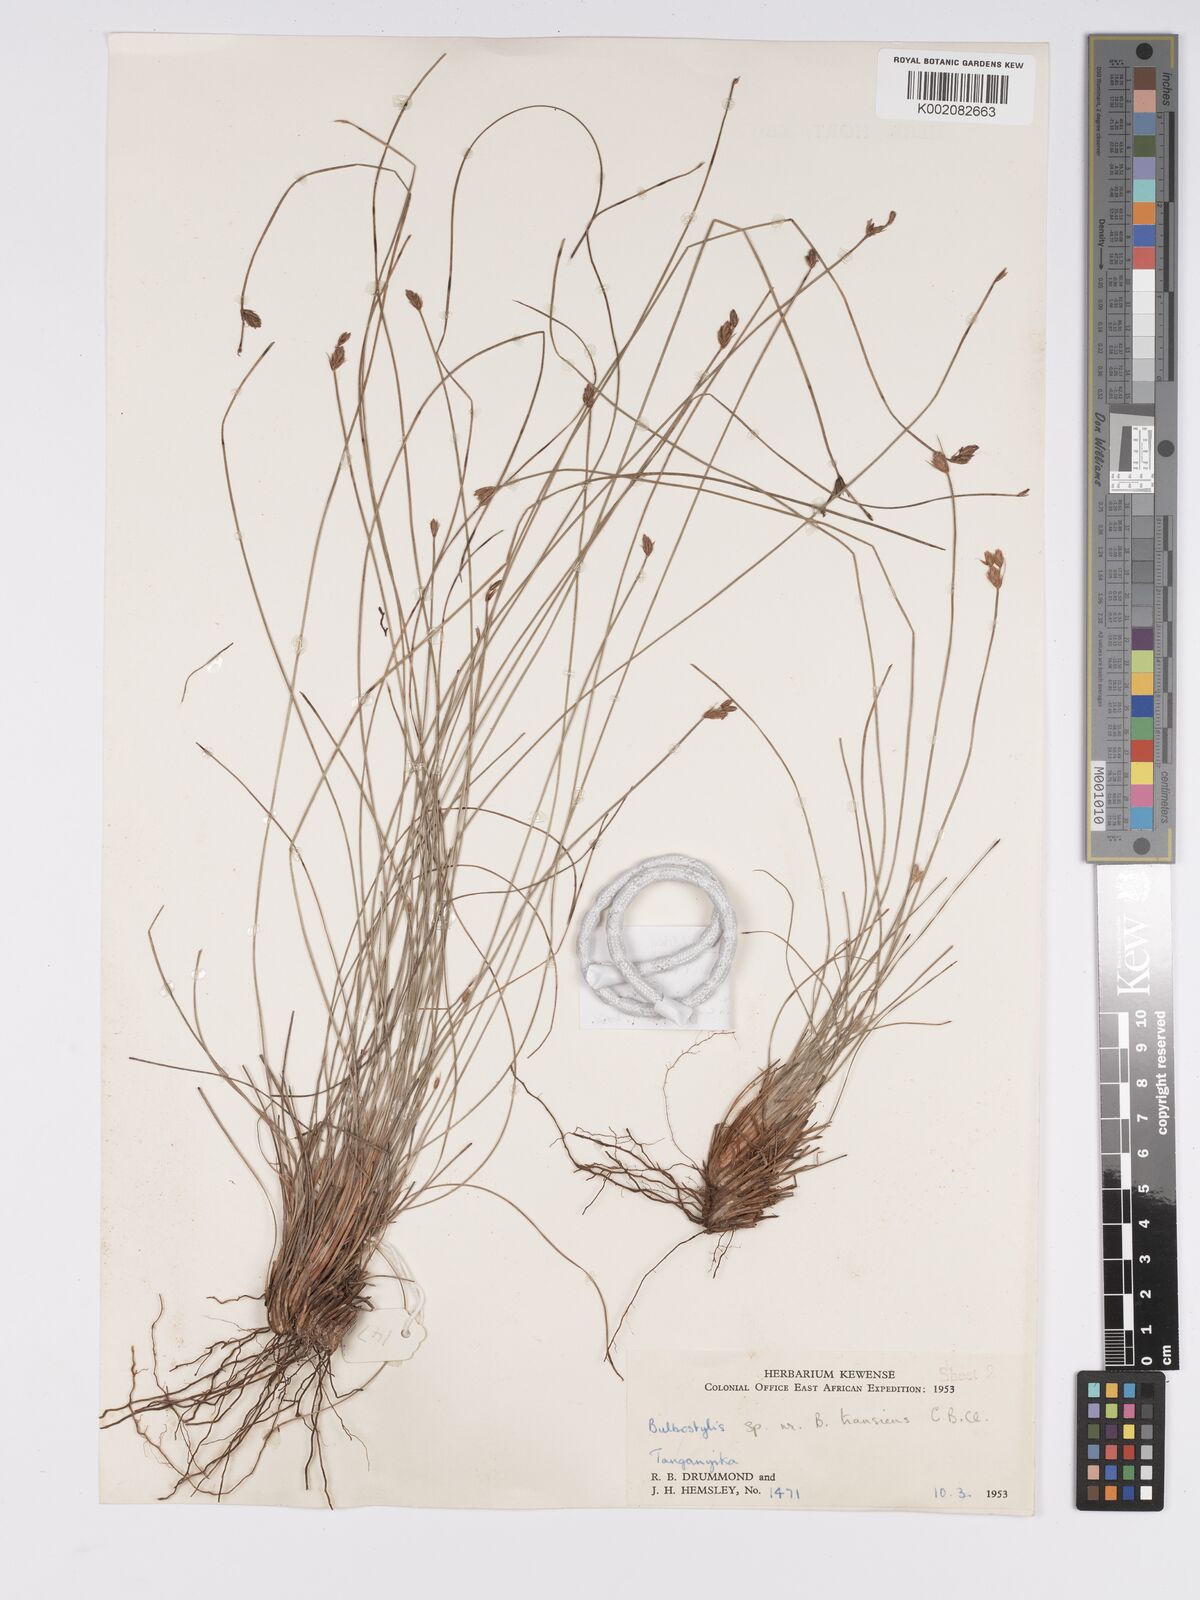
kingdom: Plantae
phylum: Tracheophyta
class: Liliopsida
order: Poales
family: Cyperaceae
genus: Bulbostylis
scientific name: Bulbostylis boeckeleriana
